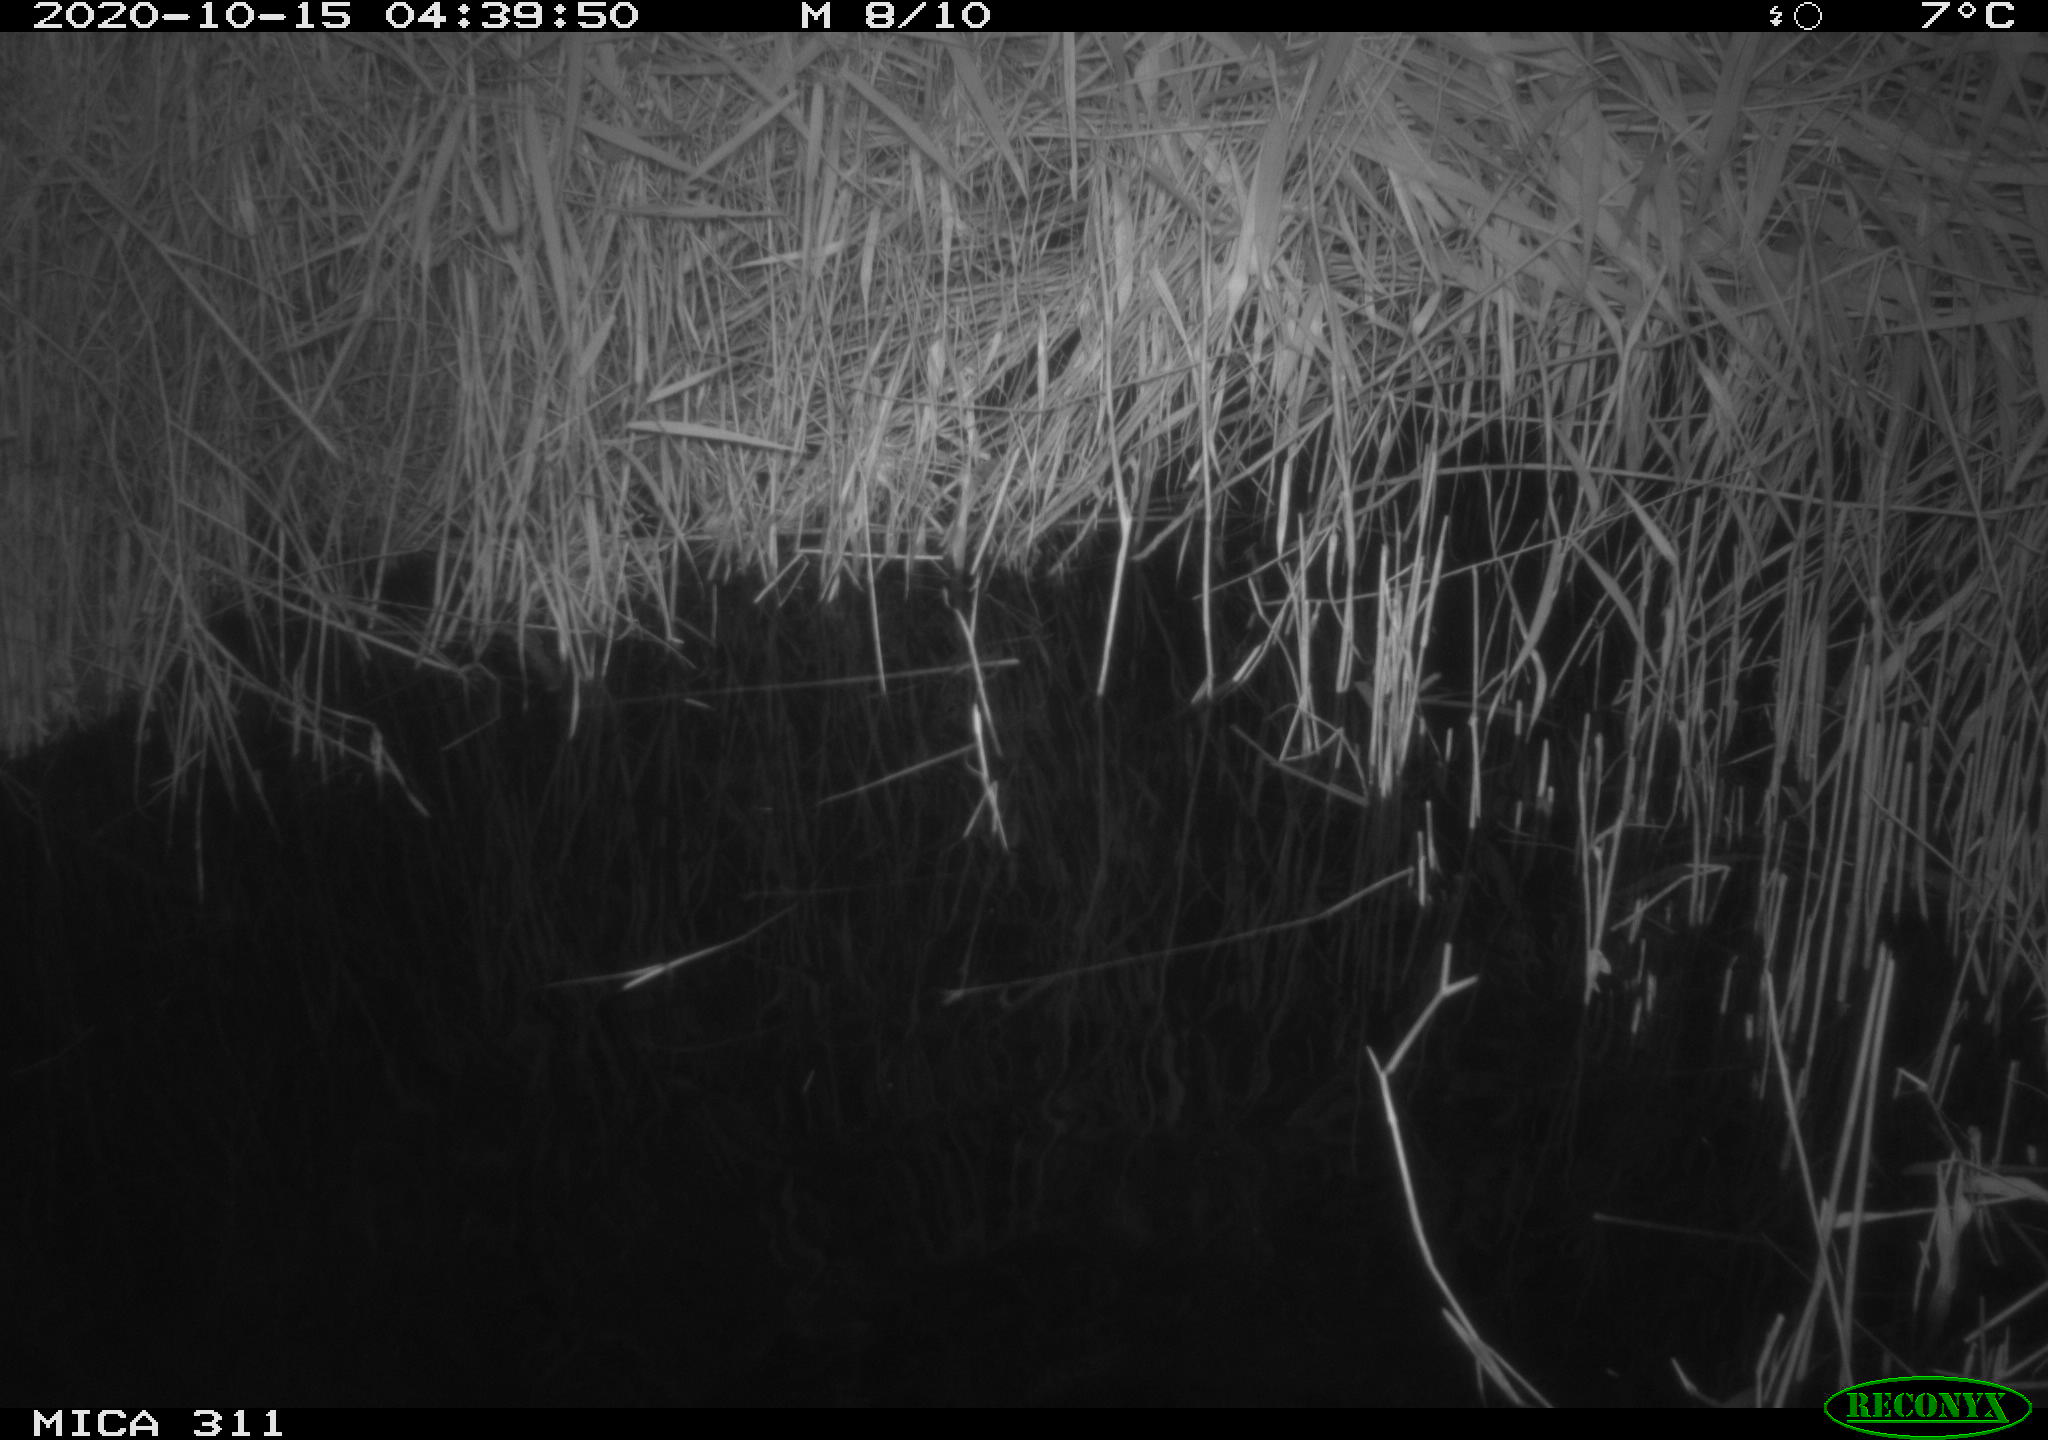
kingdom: Animalia
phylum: Chordata
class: Mammalia
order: Rodentia
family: Muridae
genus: Rattus
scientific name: Rattus norvegicus
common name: Brown rat
